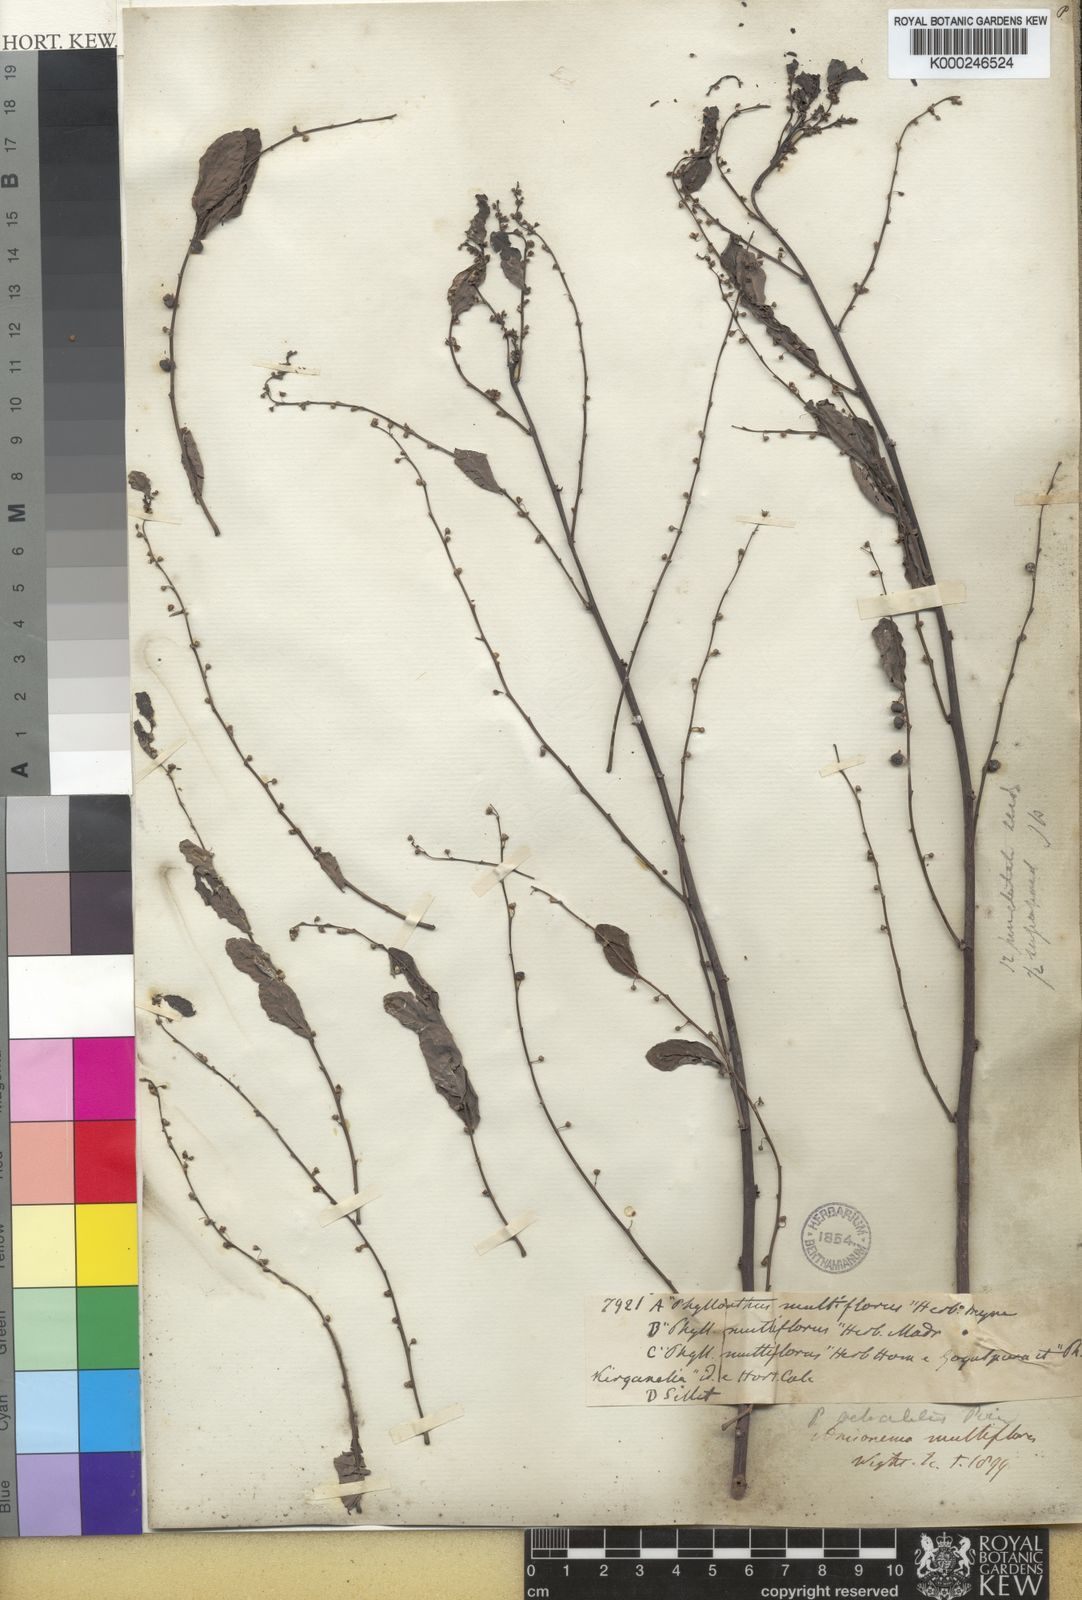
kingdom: Plantae
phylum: Tracheophyta
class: Magnoliopsida
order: Malpighiales
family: Phyllanthaceae
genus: Phyllanthus
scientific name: Phyllanthus reticulatus
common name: Potato bush
